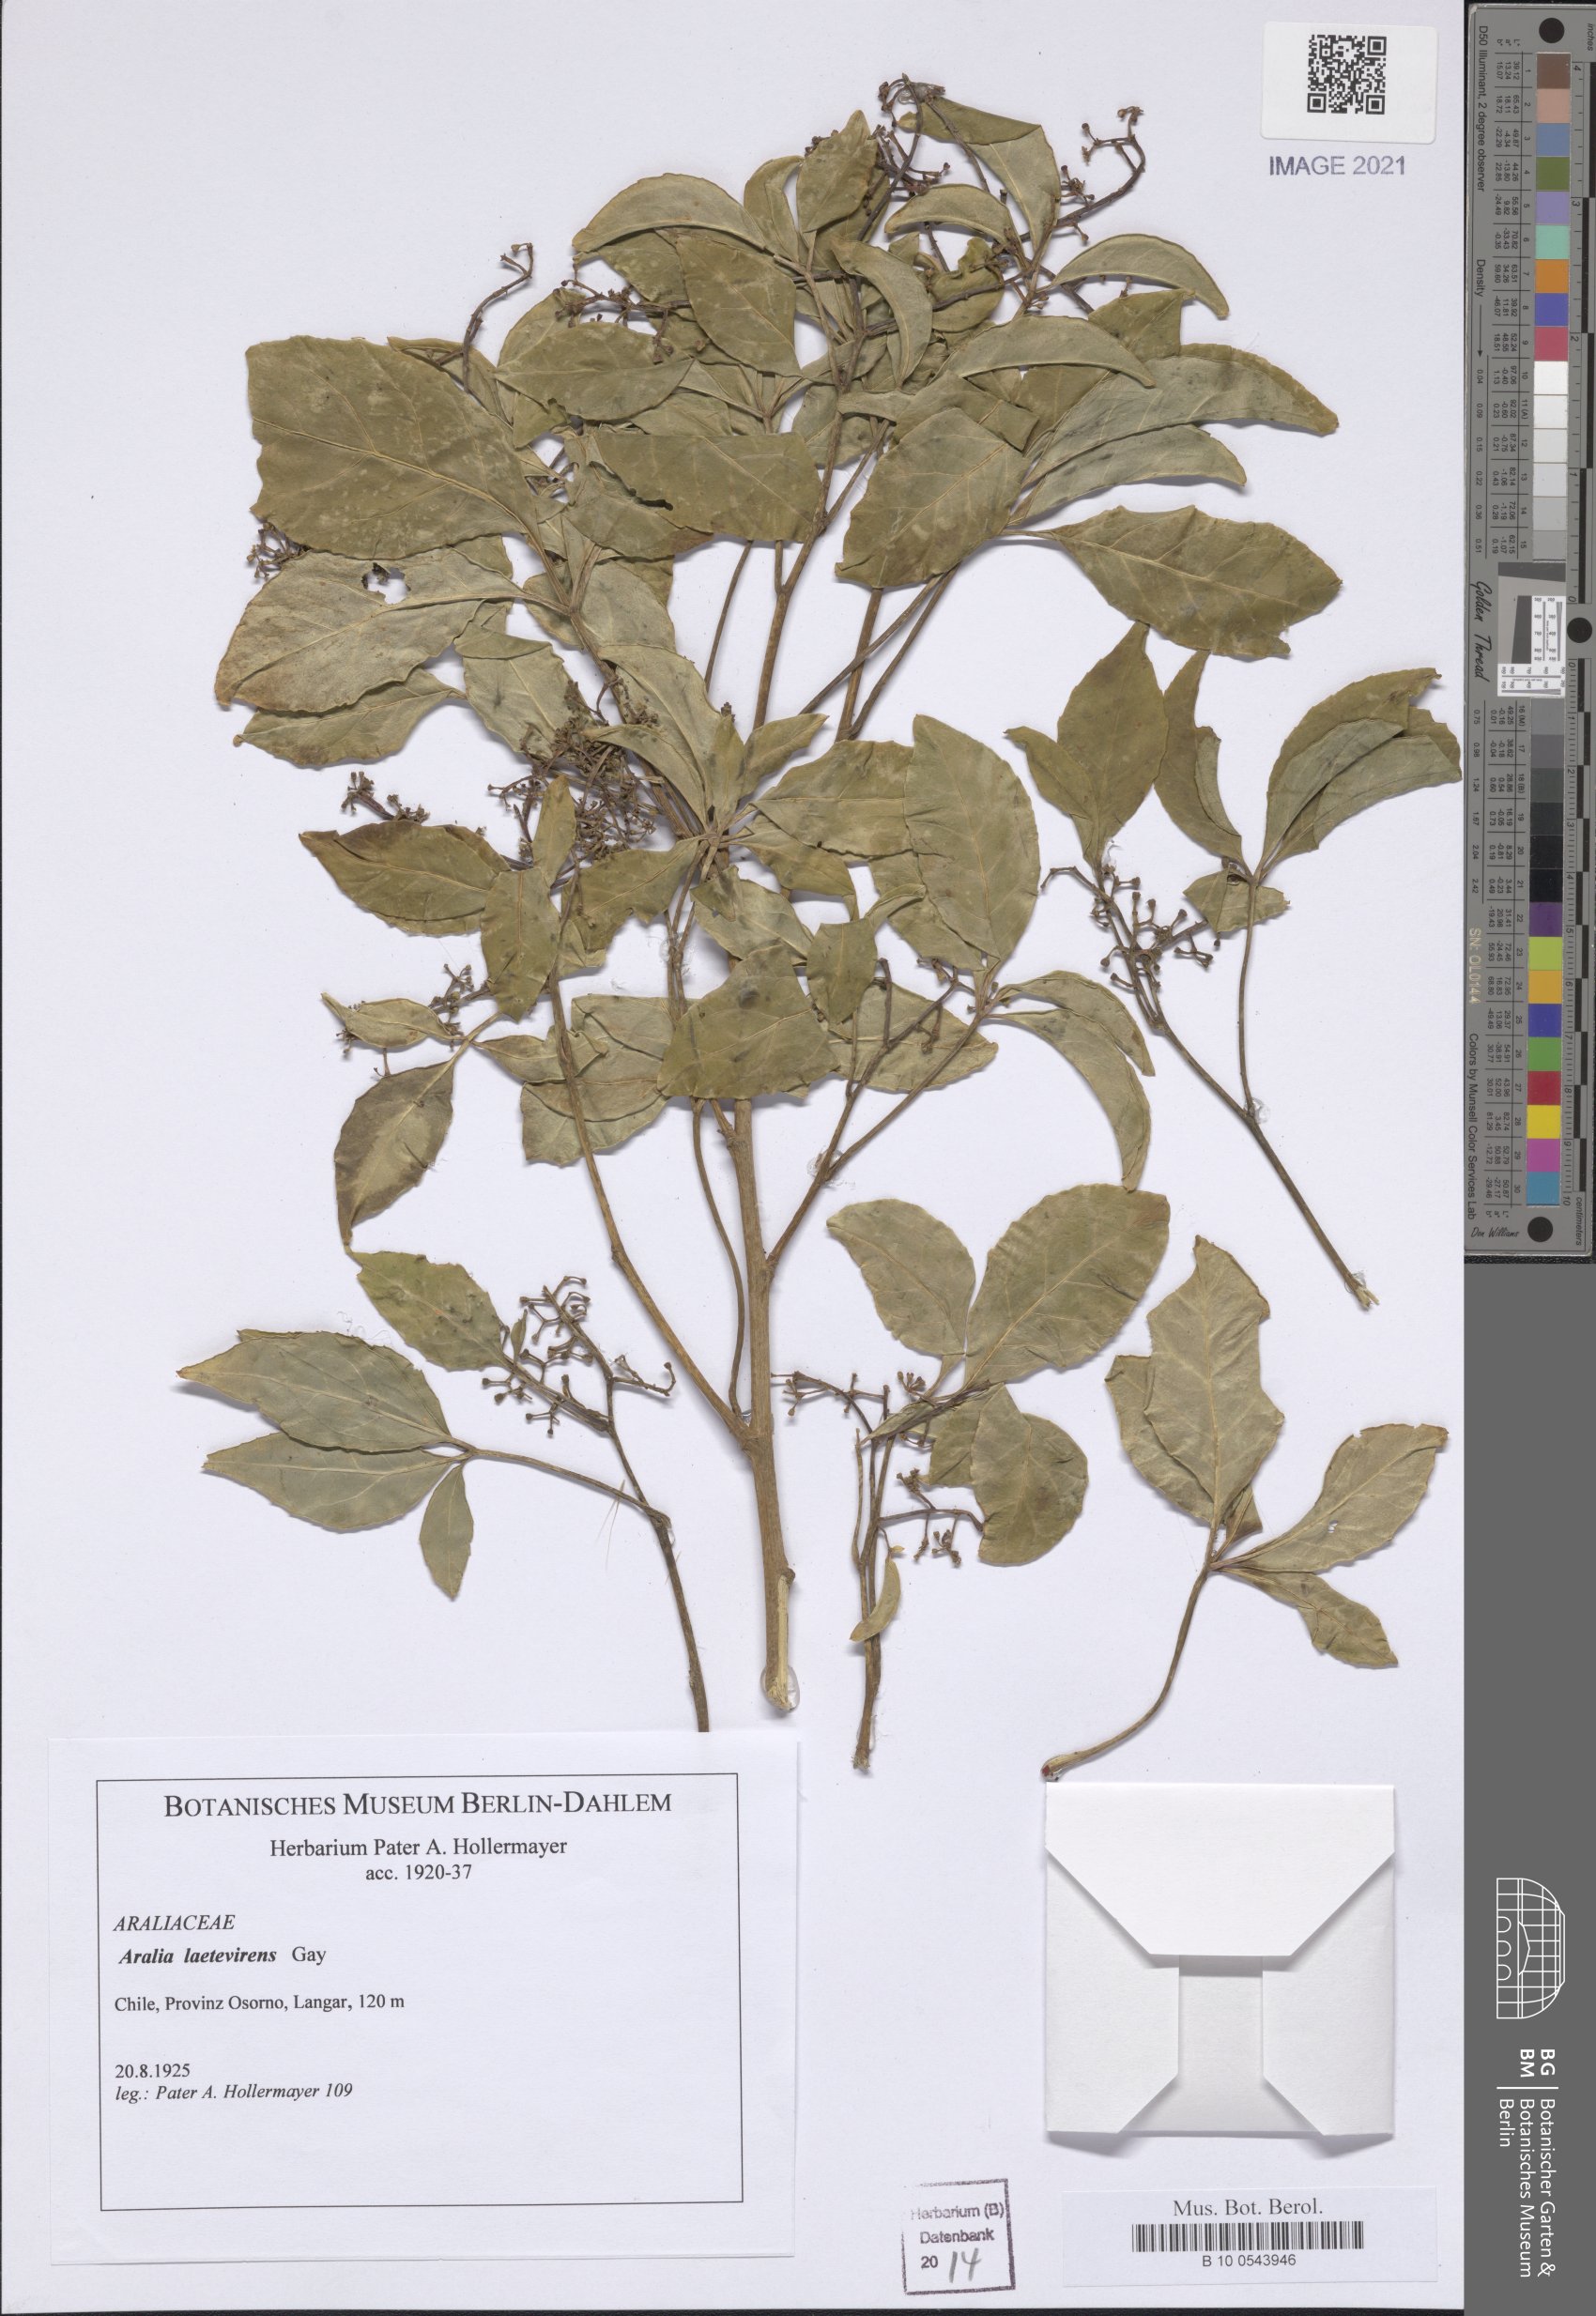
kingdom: Plantae
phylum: Tracheophyta
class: Magnoliopsida
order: Apiales
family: Araliaceae
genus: Raukaua
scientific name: Raukaua laetevirens
